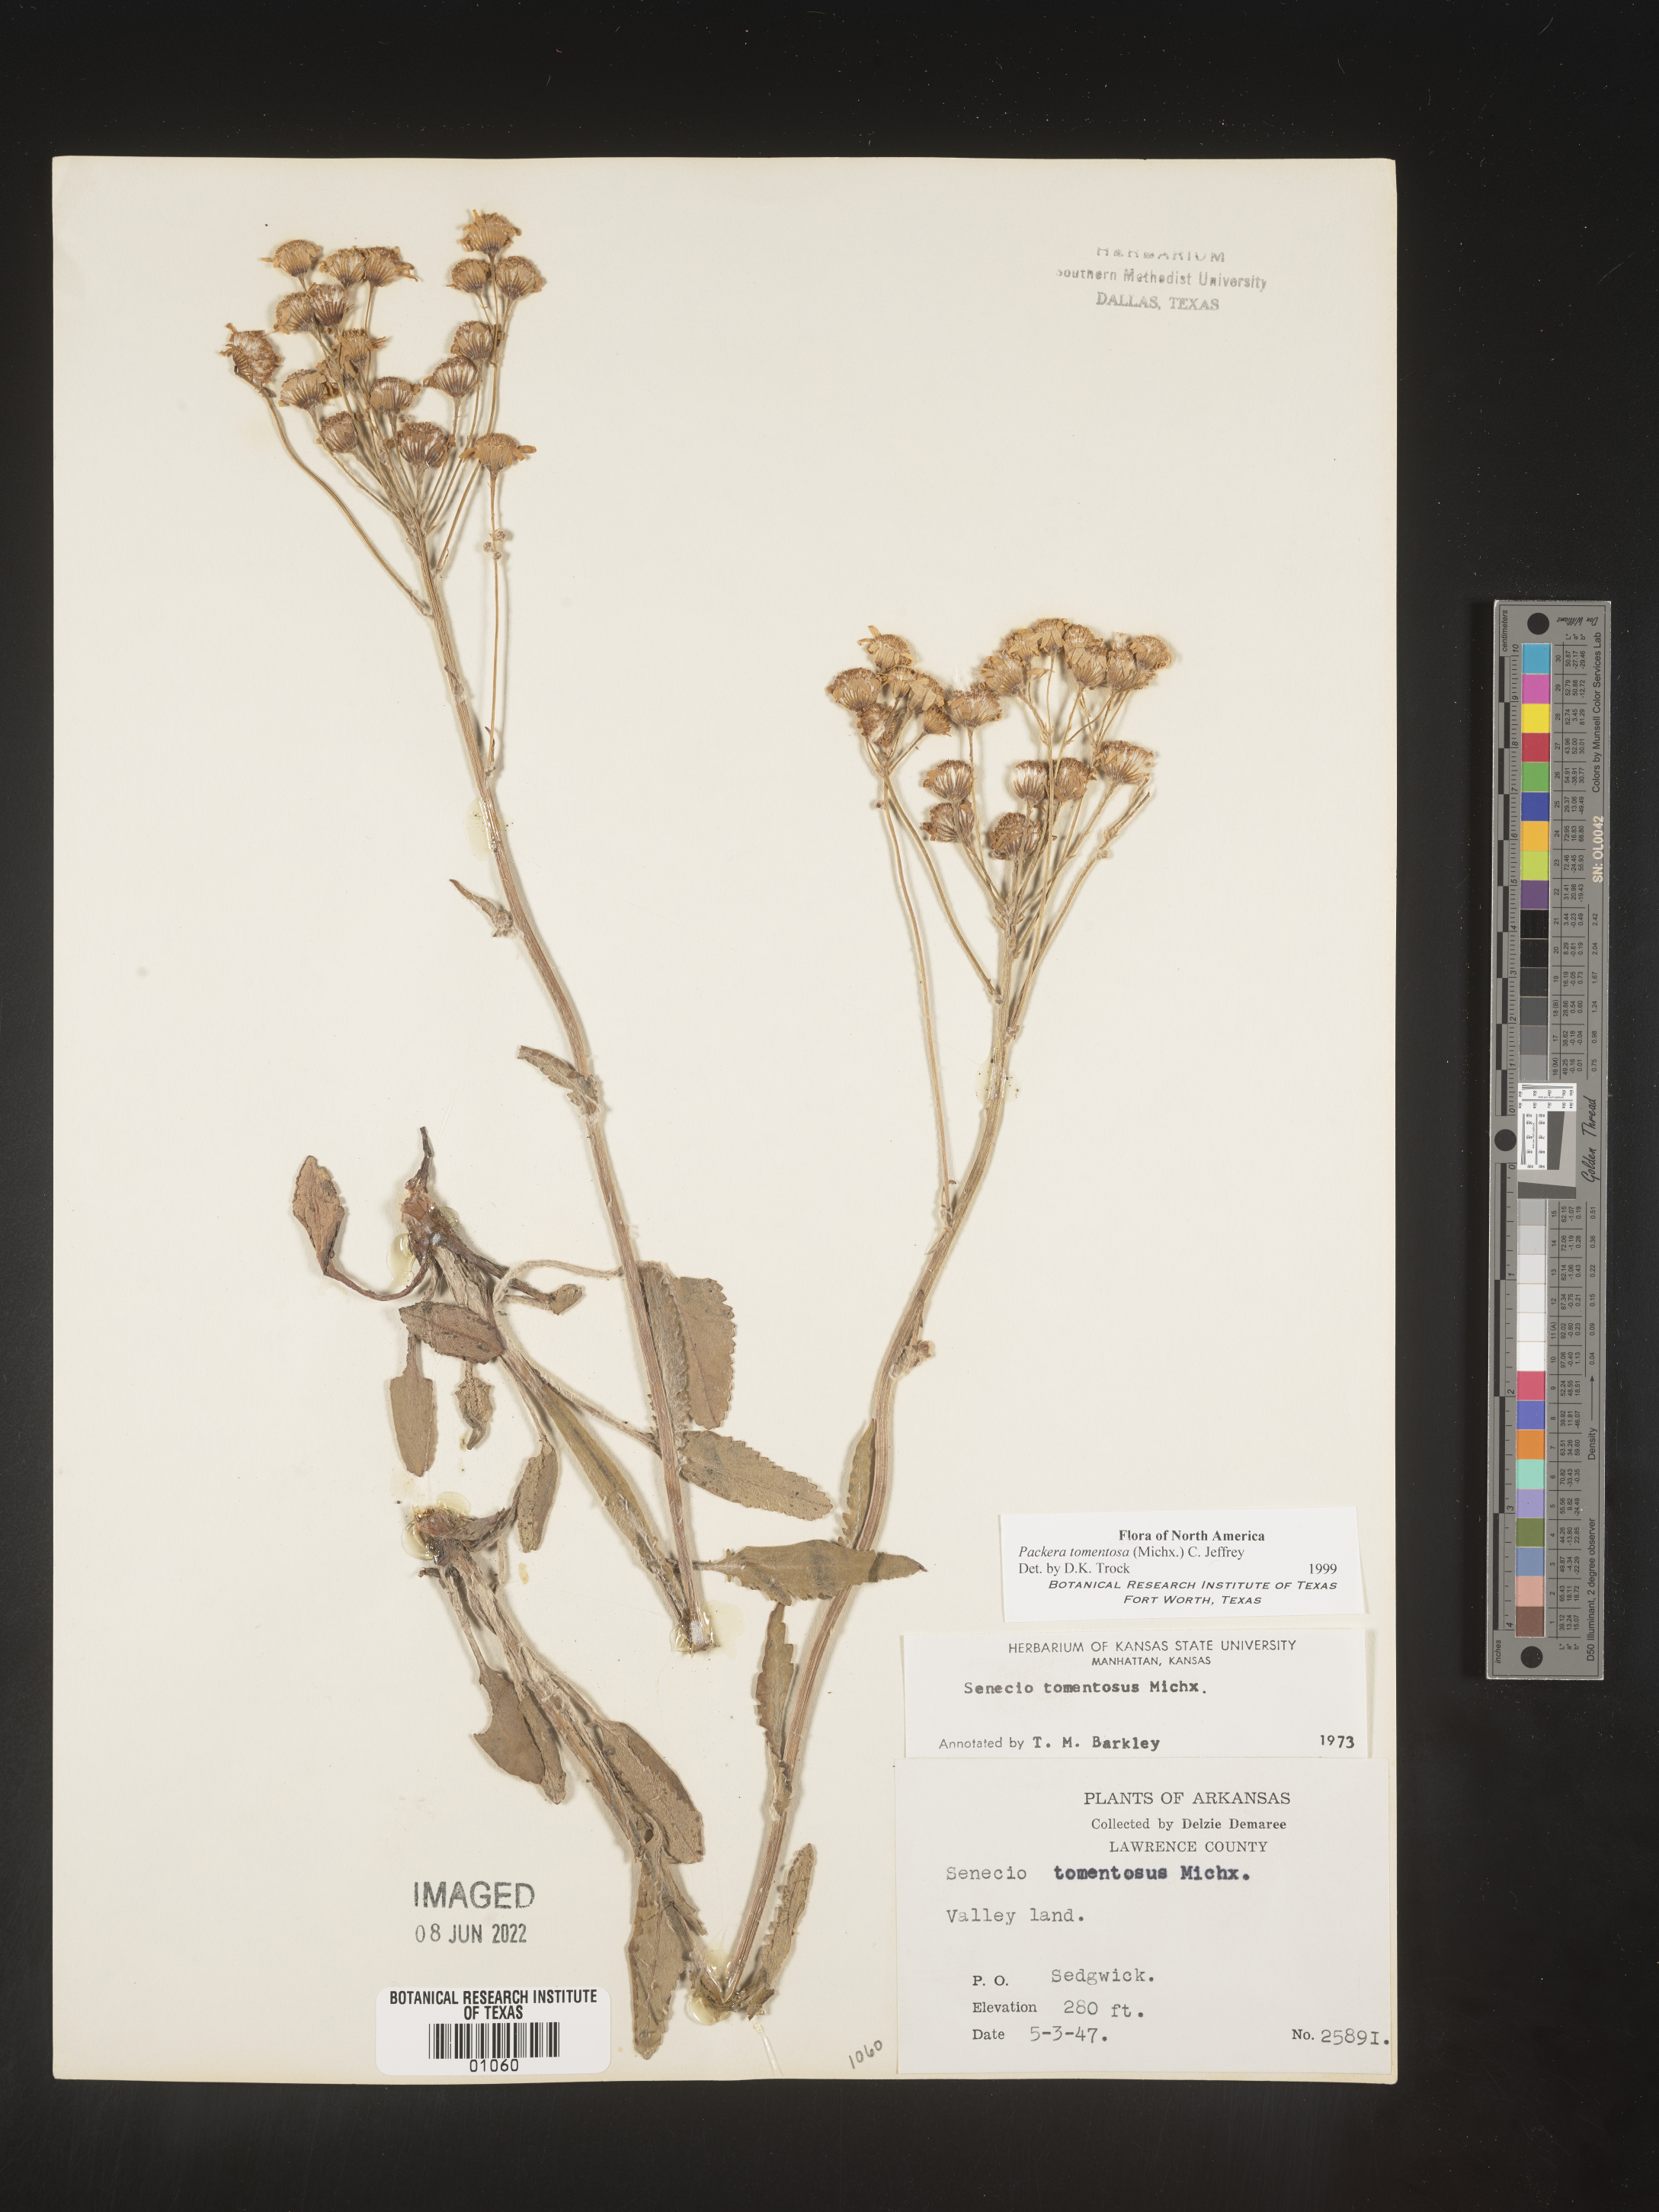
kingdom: Plantae
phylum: Tracheophyta
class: Magnoliopsida
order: Asterales
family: Asteraceae
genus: Packera
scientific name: Packera dubia
